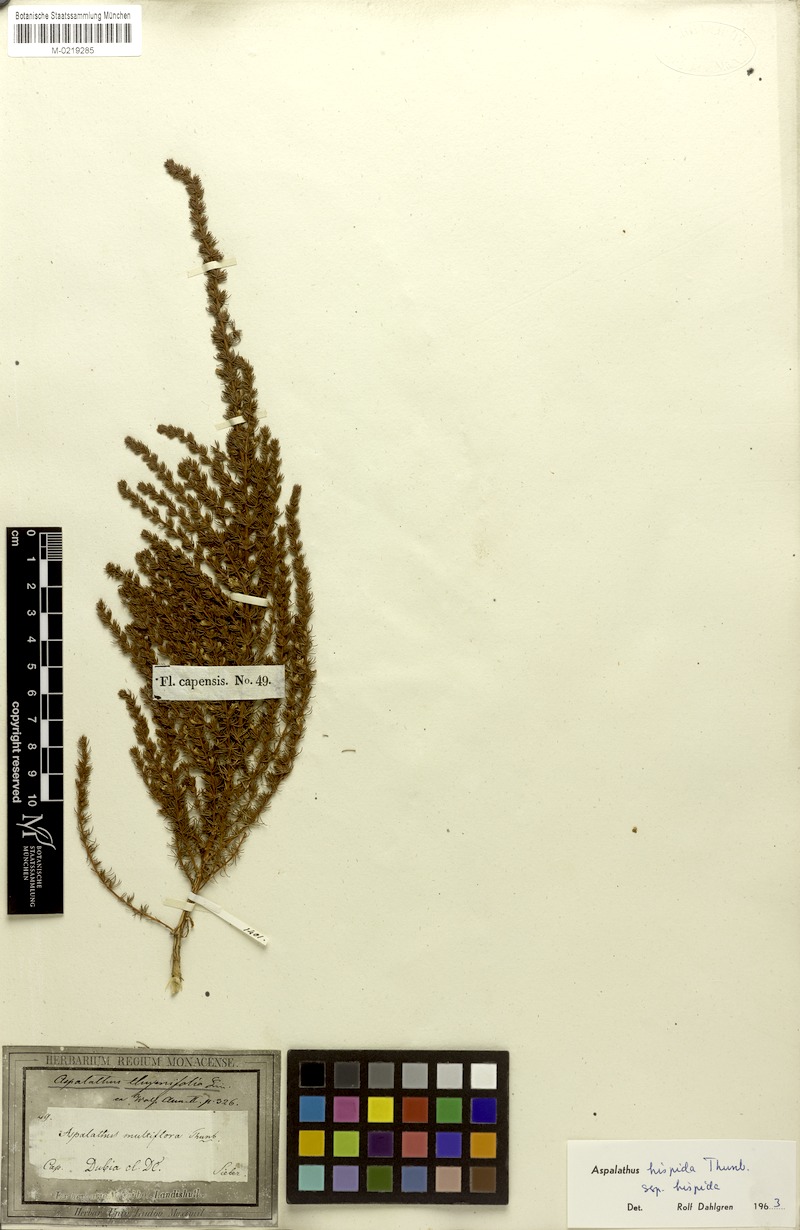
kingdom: Plantae
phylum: Tracheophyta
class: Magnoliopsida
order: Fabales
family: Fabaceae
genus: Aspalathus
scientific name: Aspalathus hispida
